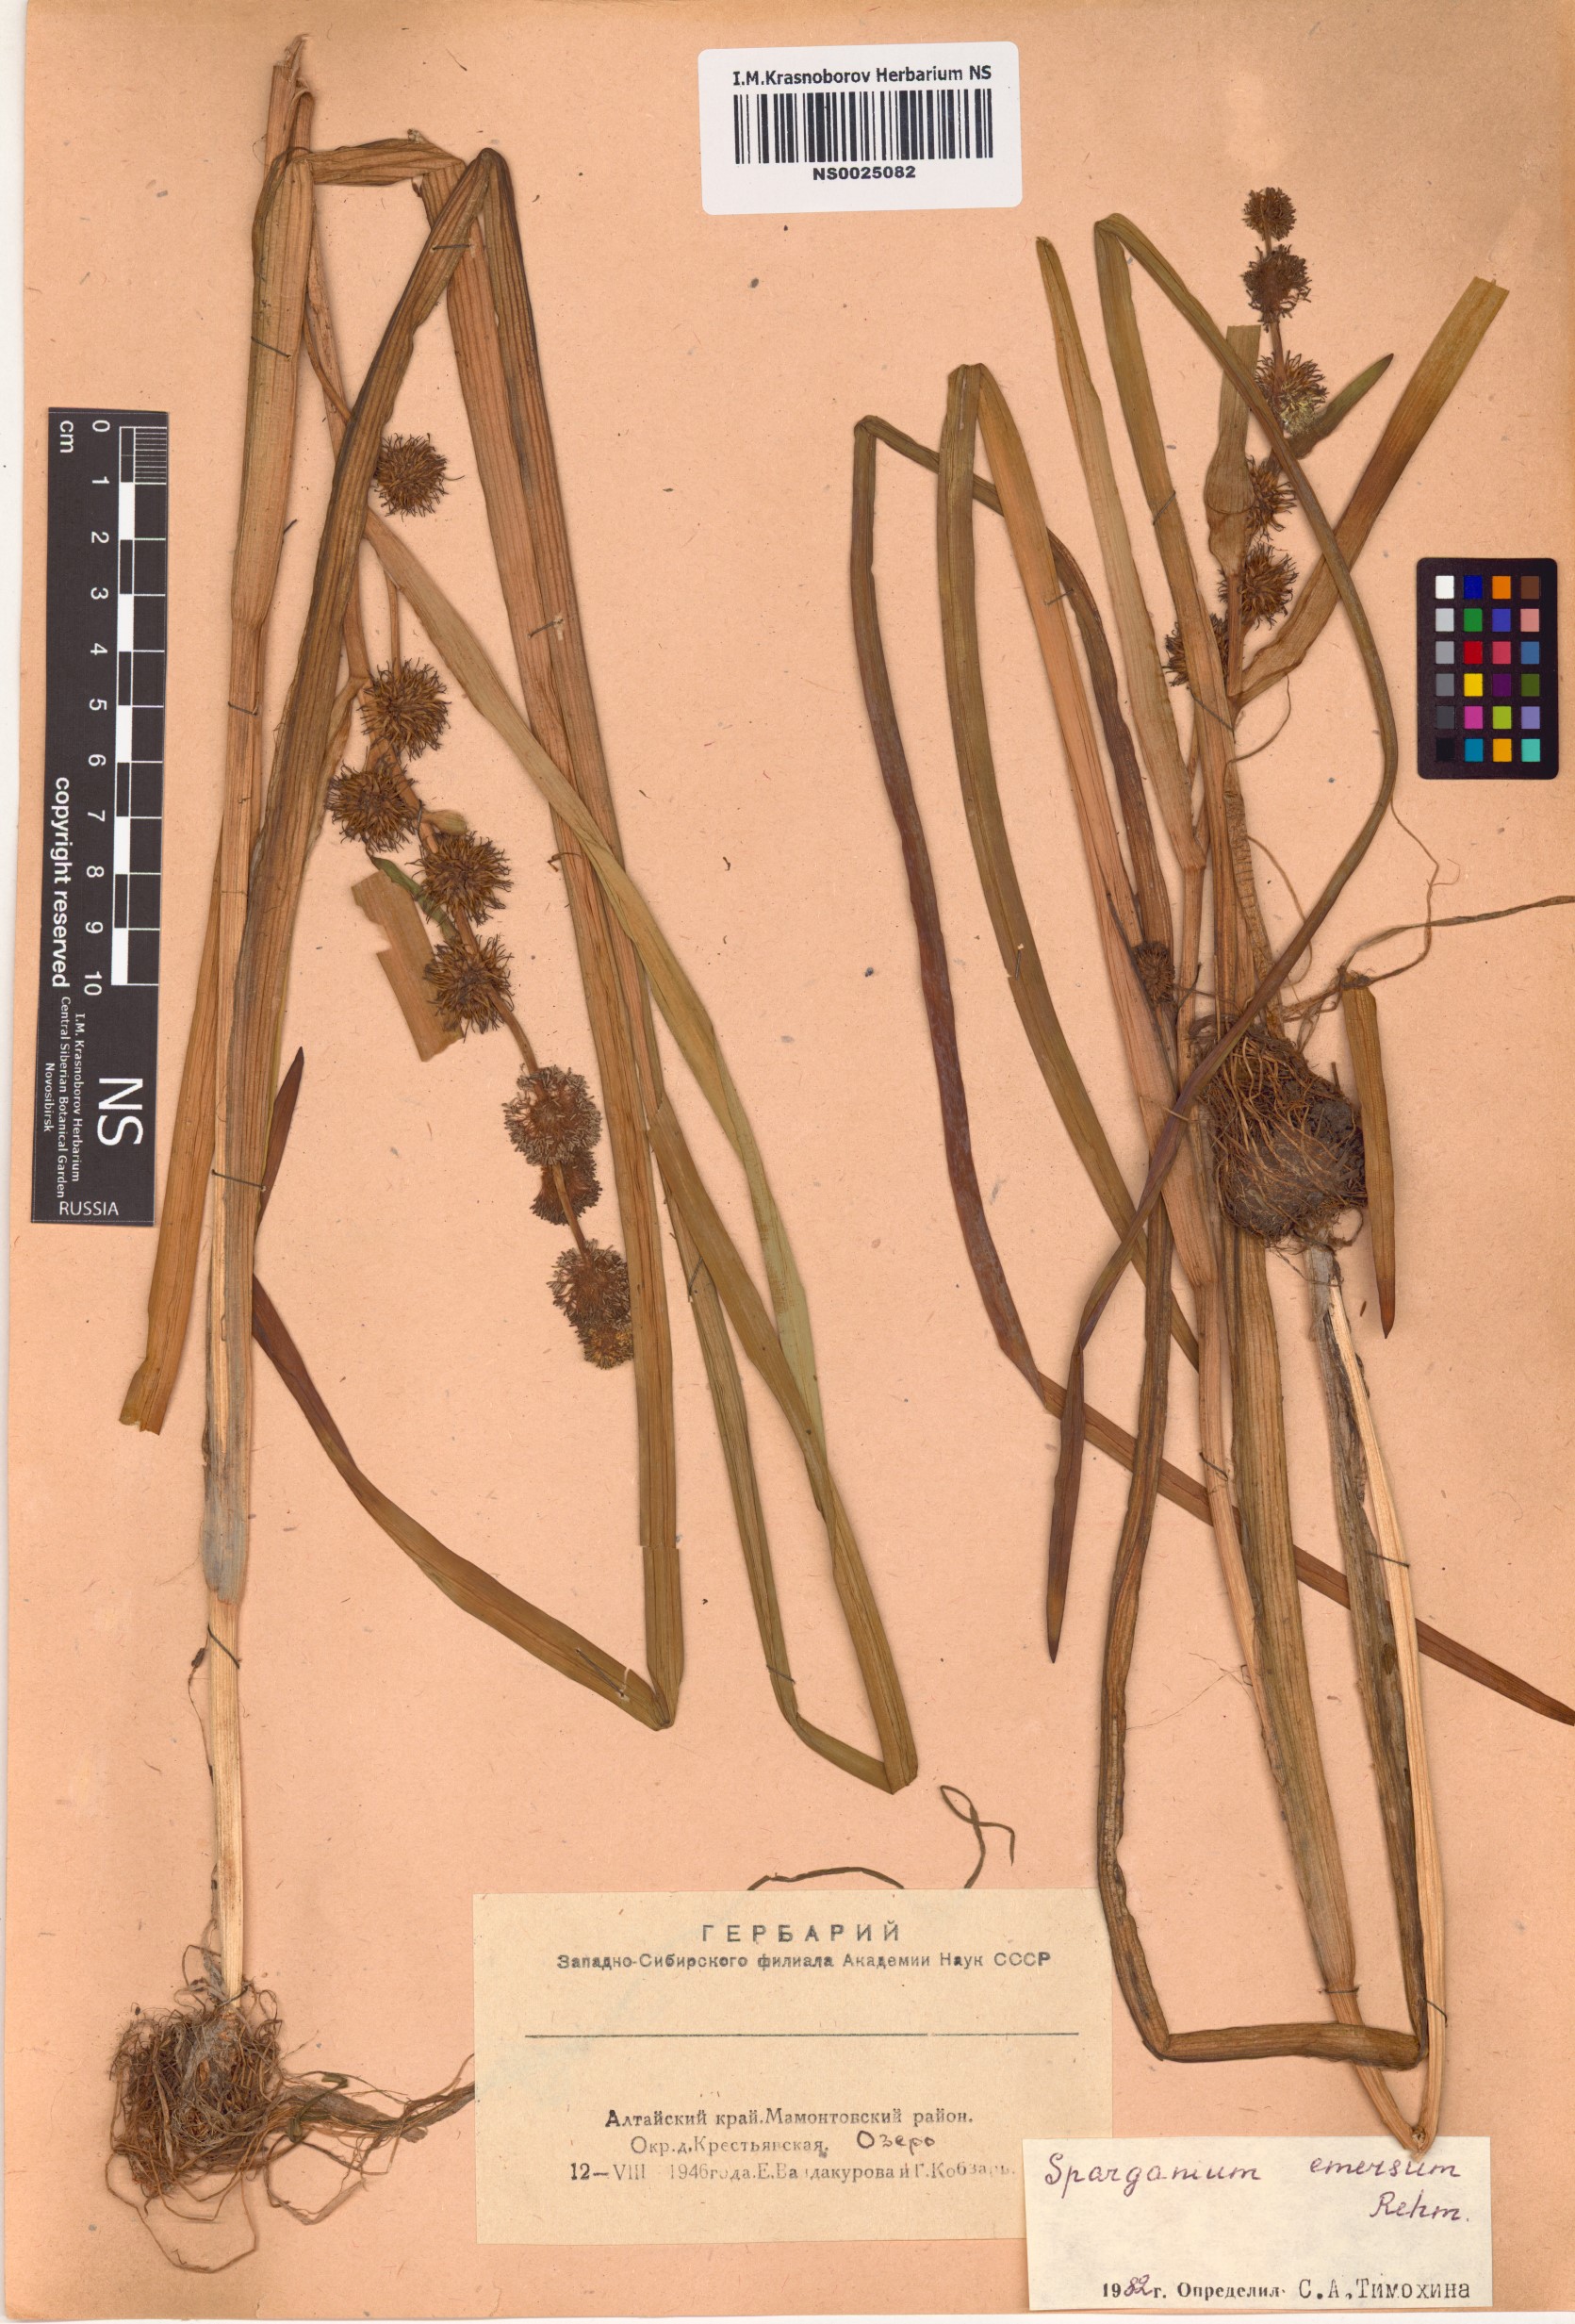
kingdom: Plantae
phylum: Tracheophyta
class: Liliopsida
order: Poales
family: Typhaceae
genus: Sparganium
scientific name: Sparganium emersum
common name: Unbranched bur-reed
